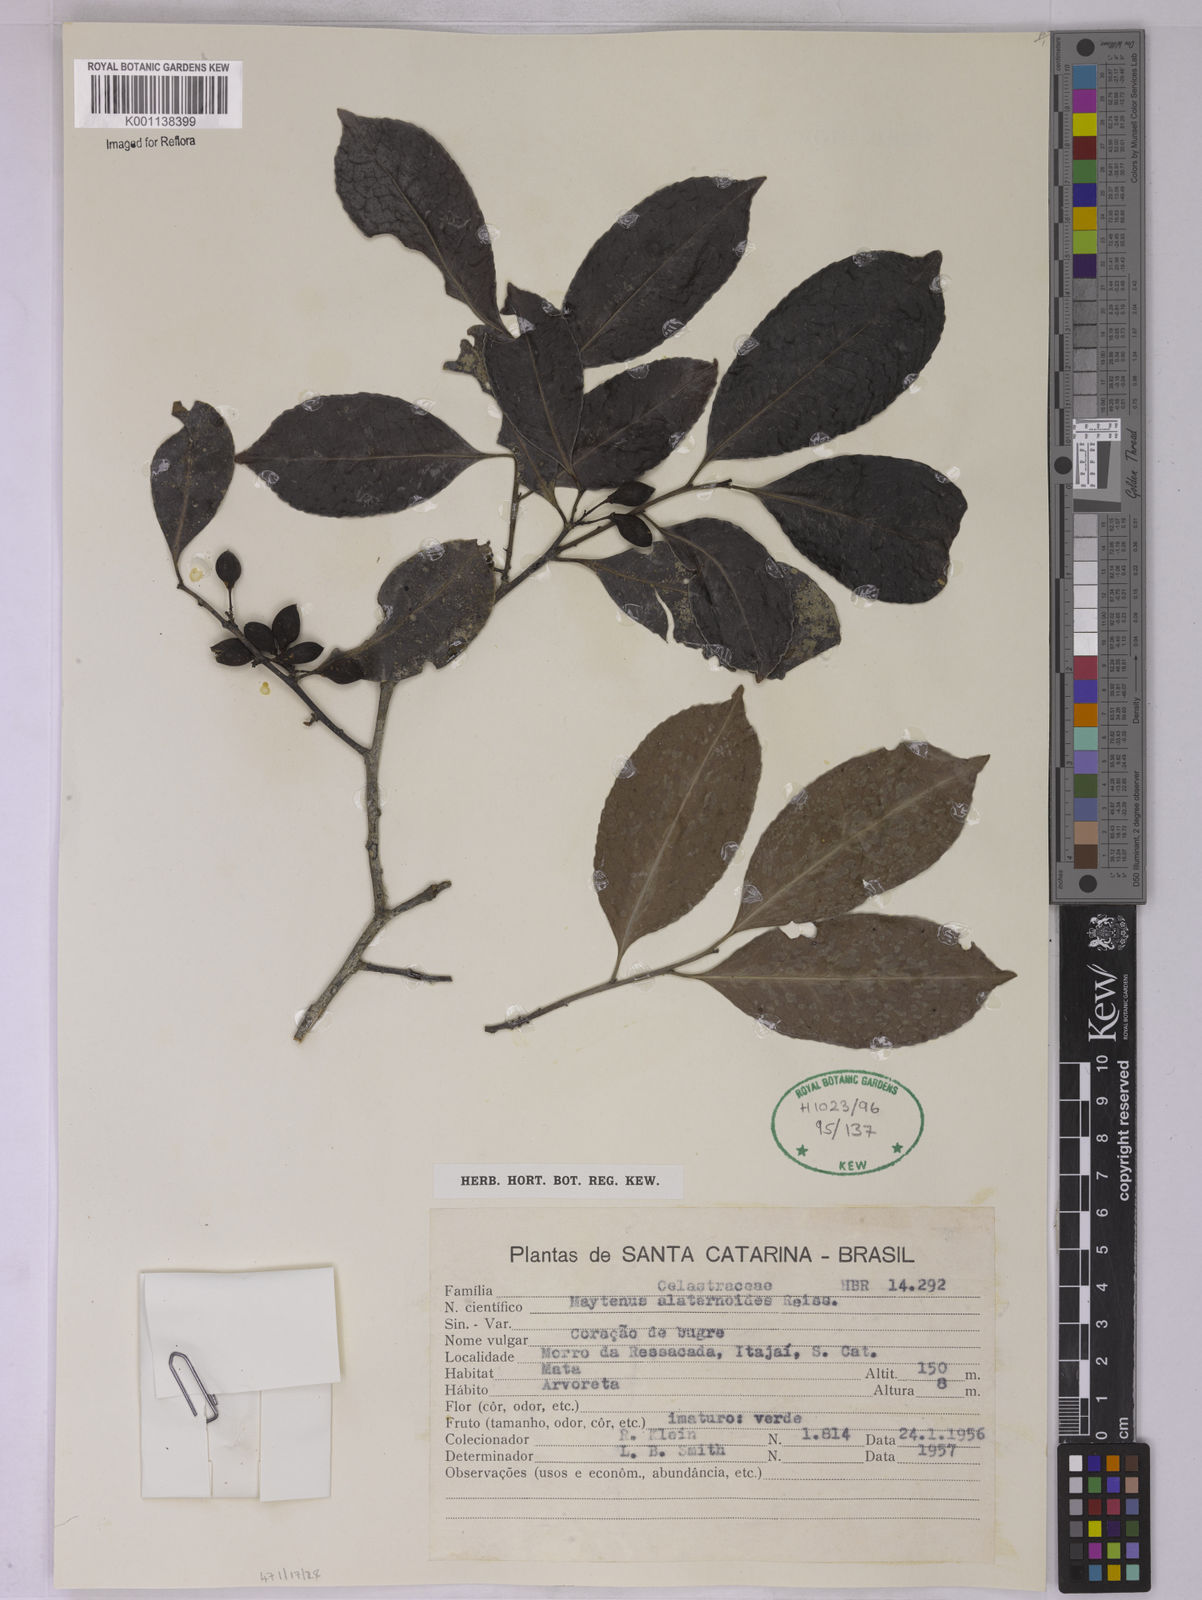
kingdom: Plantae
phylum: Tracheophyta
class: Magnoliopsida
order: Celastrales
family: Celastraceae
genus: Maytenus
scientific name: Maytenus alaternoides
